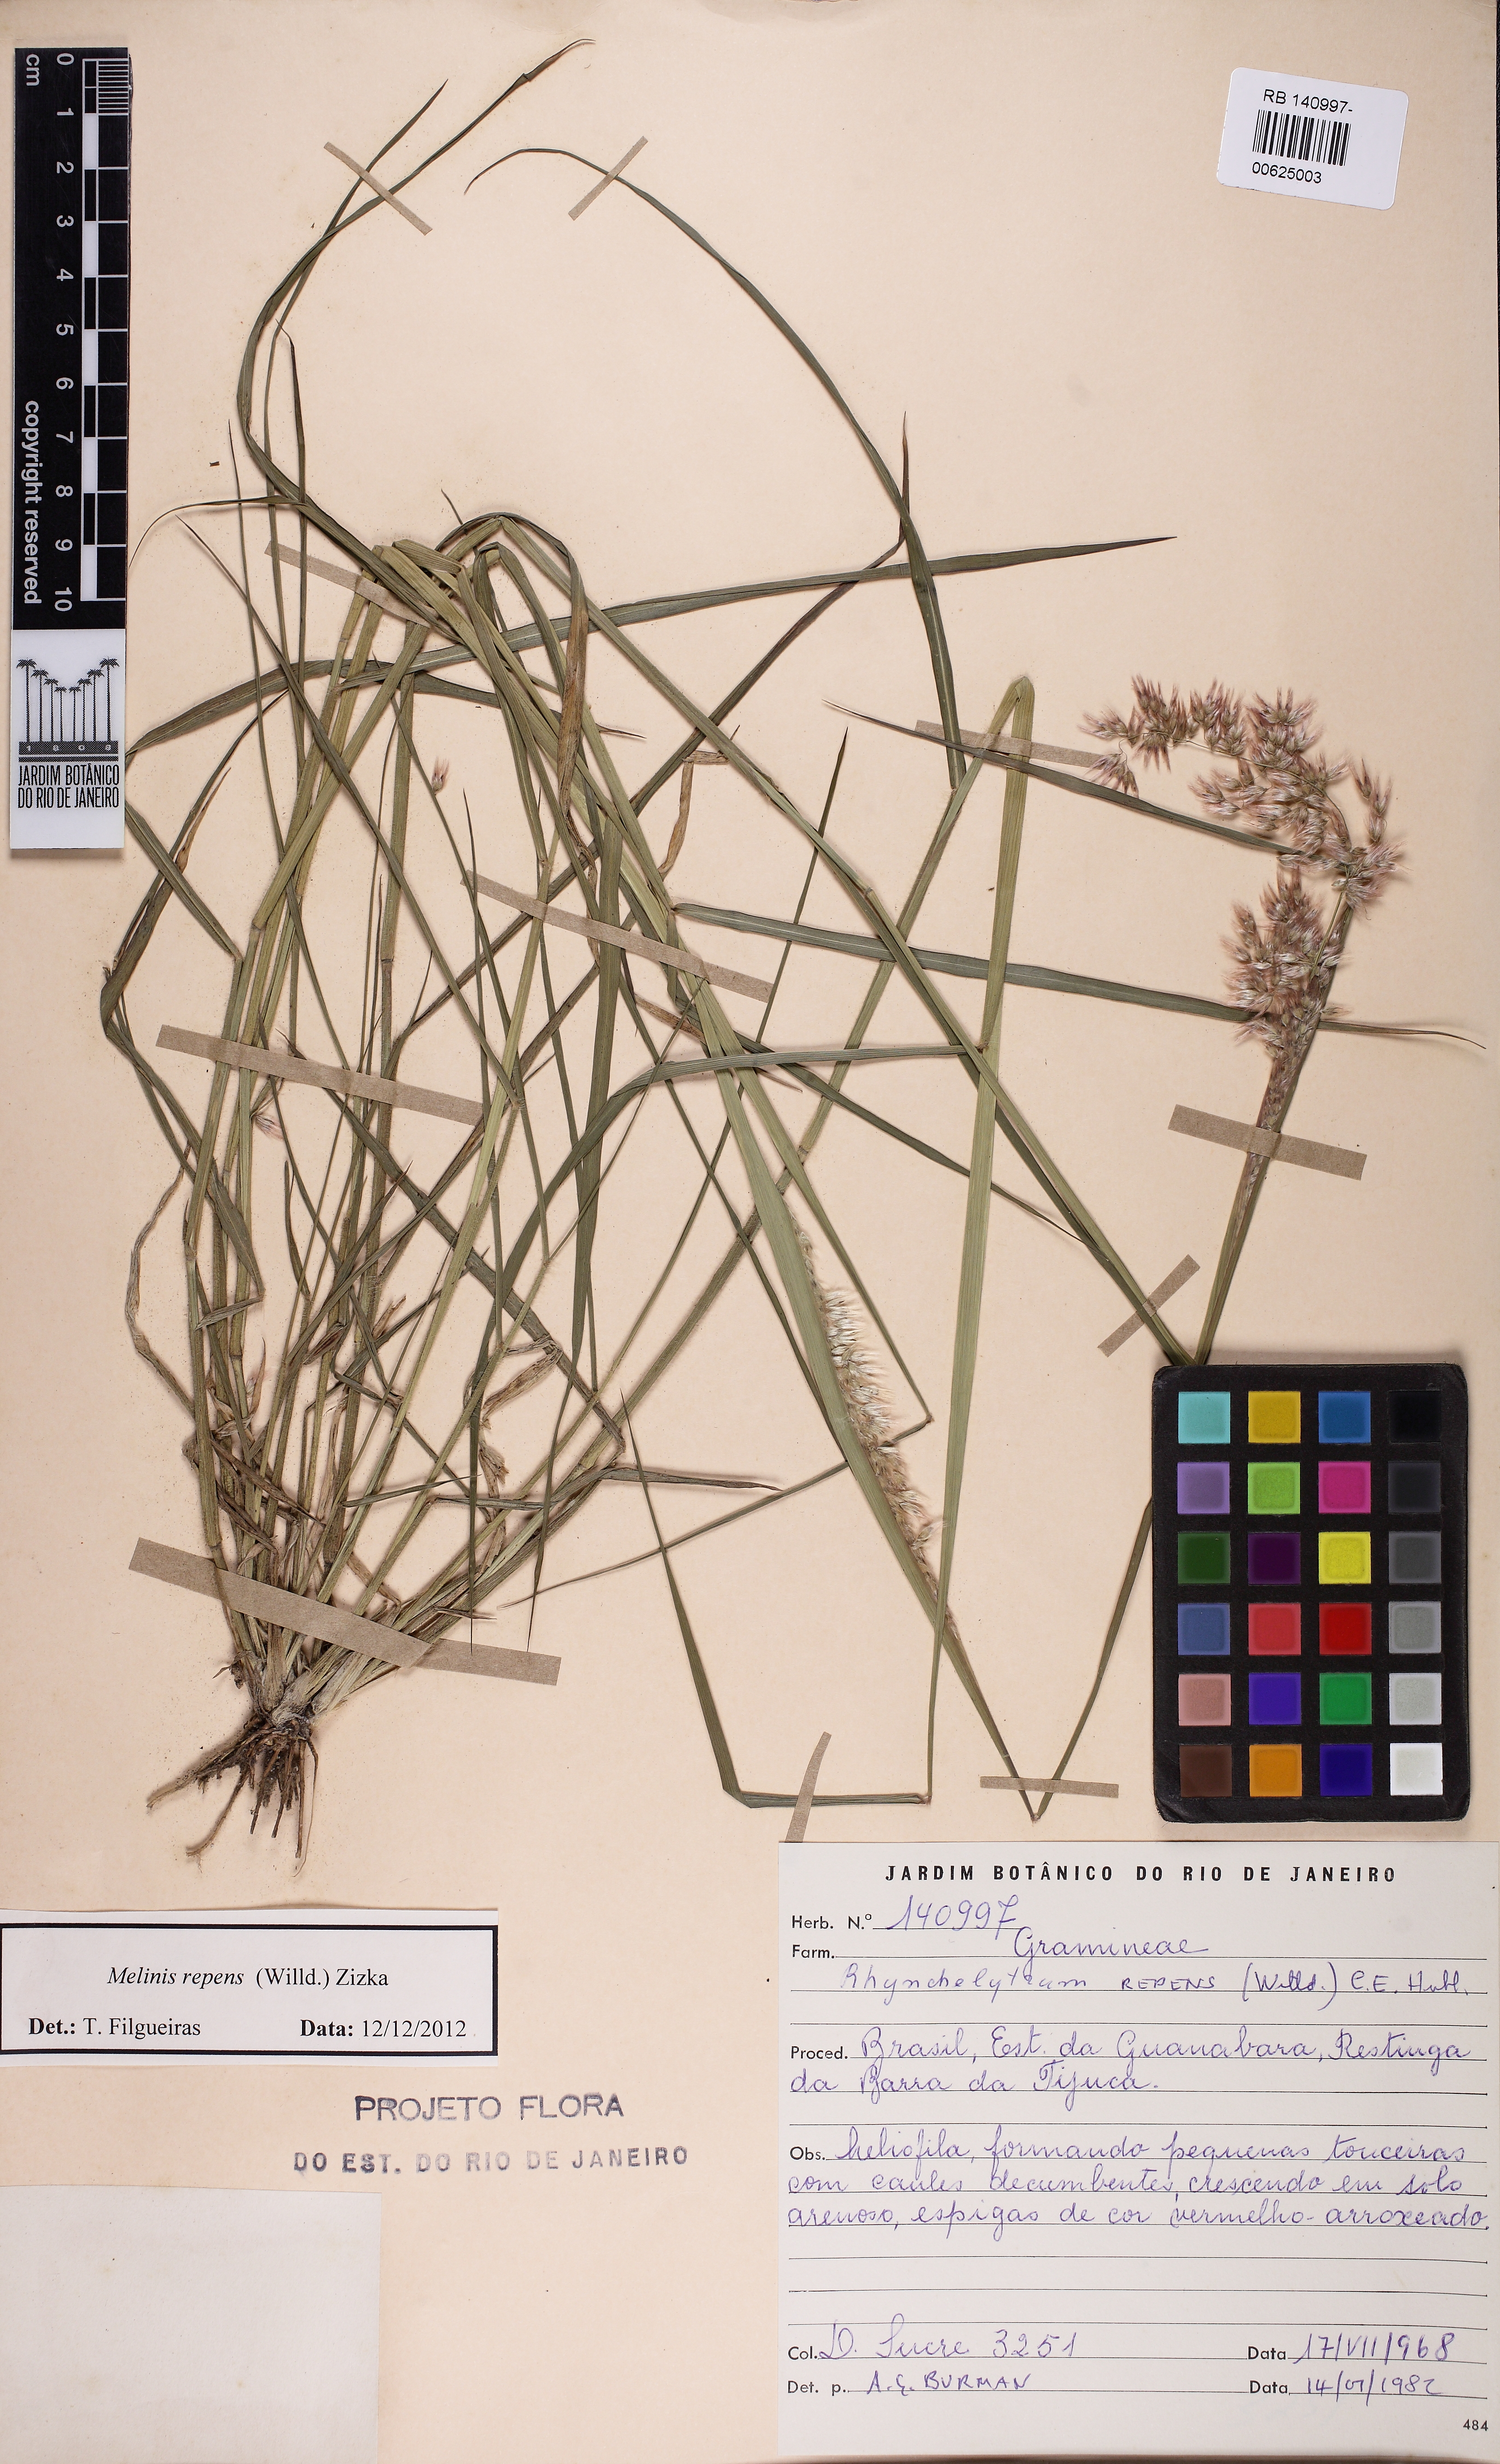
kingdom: Plantae
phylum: Tracheophyta
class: Liliopsida
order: Poales
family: Poaceae
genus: Melinis
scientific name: Melinis repens
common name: Rose natal grass
